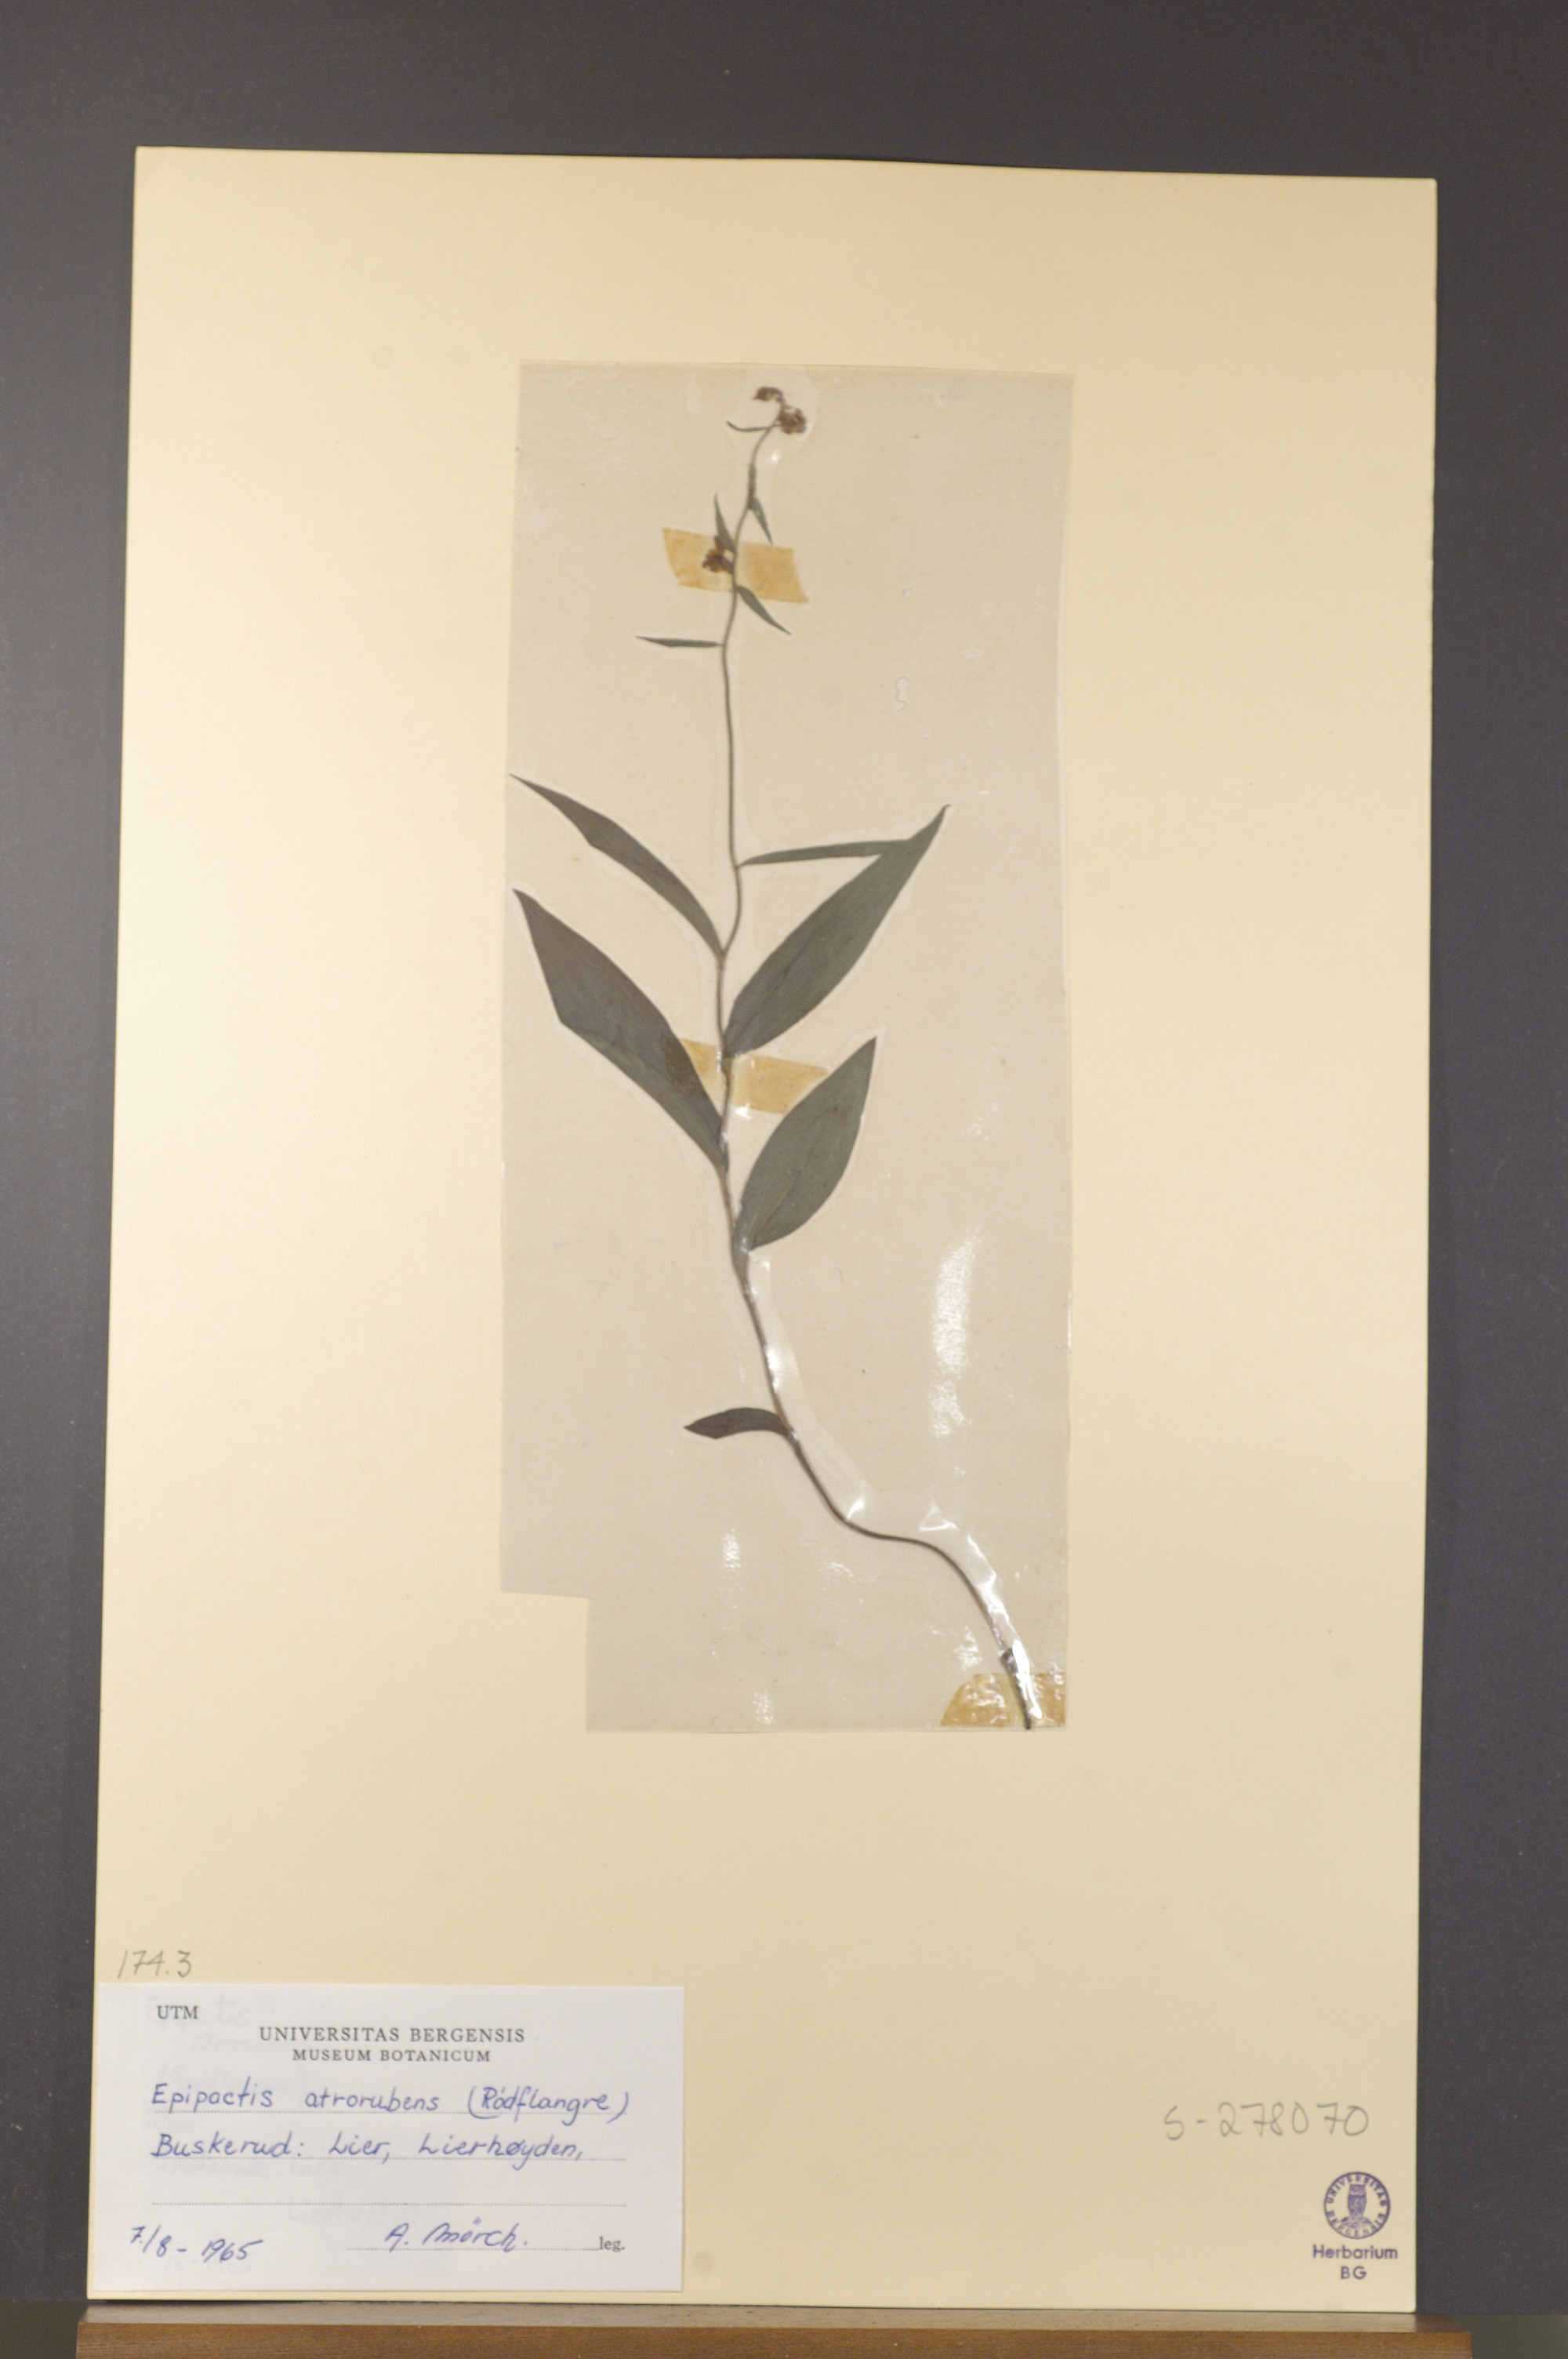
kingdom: Plantae
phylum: Tracheophyta
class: Liliopsida
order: Asparagales
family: Orchidaceae
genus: Epipactis
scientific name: Epipactis atrorubens
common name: Dark-red helleborine
